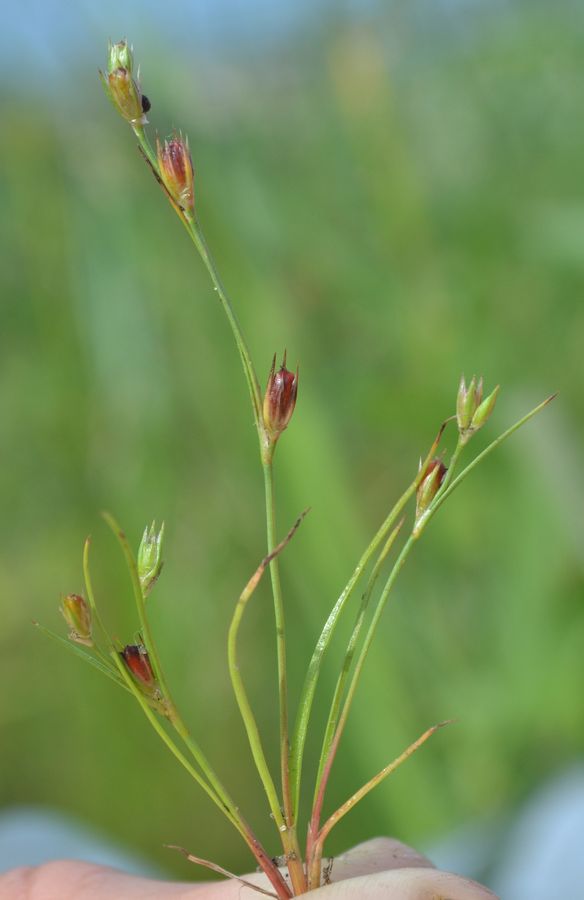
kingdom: Plantae
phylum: Tracheophyta
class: Liliopsida
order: Poales
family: Juncaceae
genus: Juncus
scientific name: Juncus gerardi
